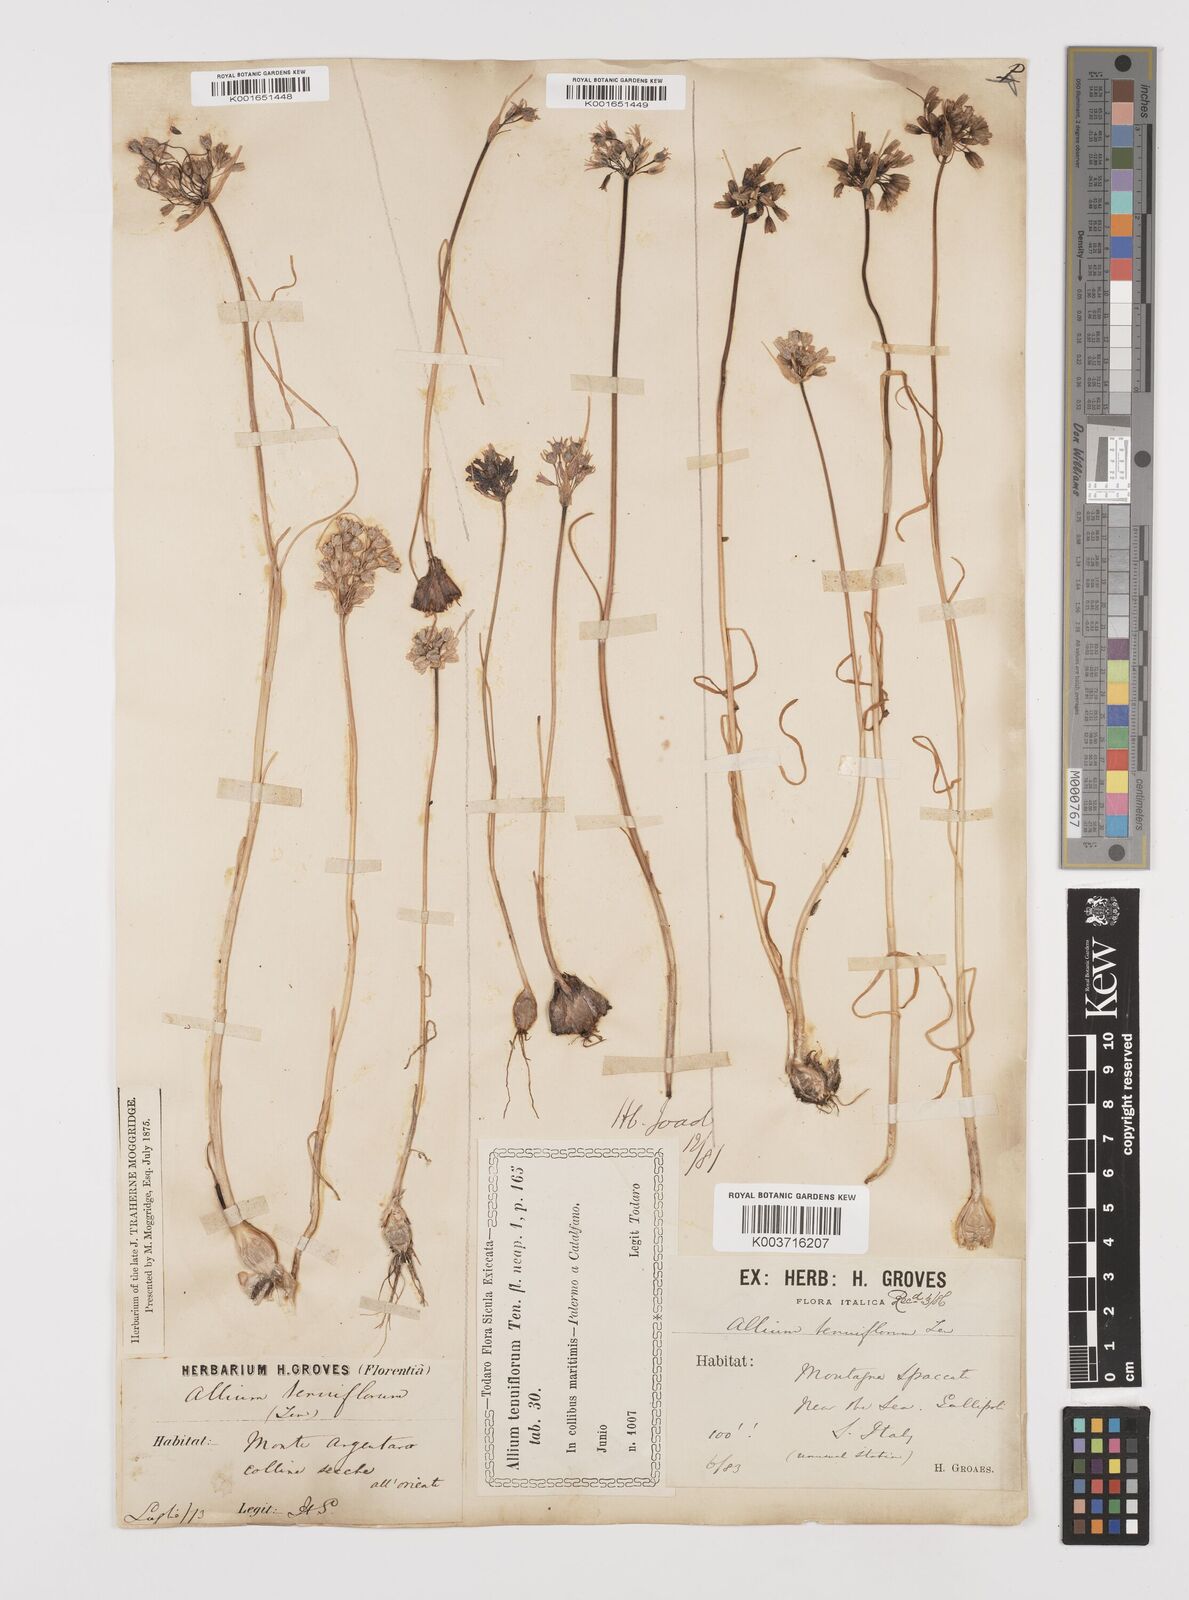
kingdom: Plantae
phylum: Tracheophyta
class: Liliopsida
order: Asparagales
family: Amaryllidaceae
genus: Allium
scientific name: Allium tenuiflorum
